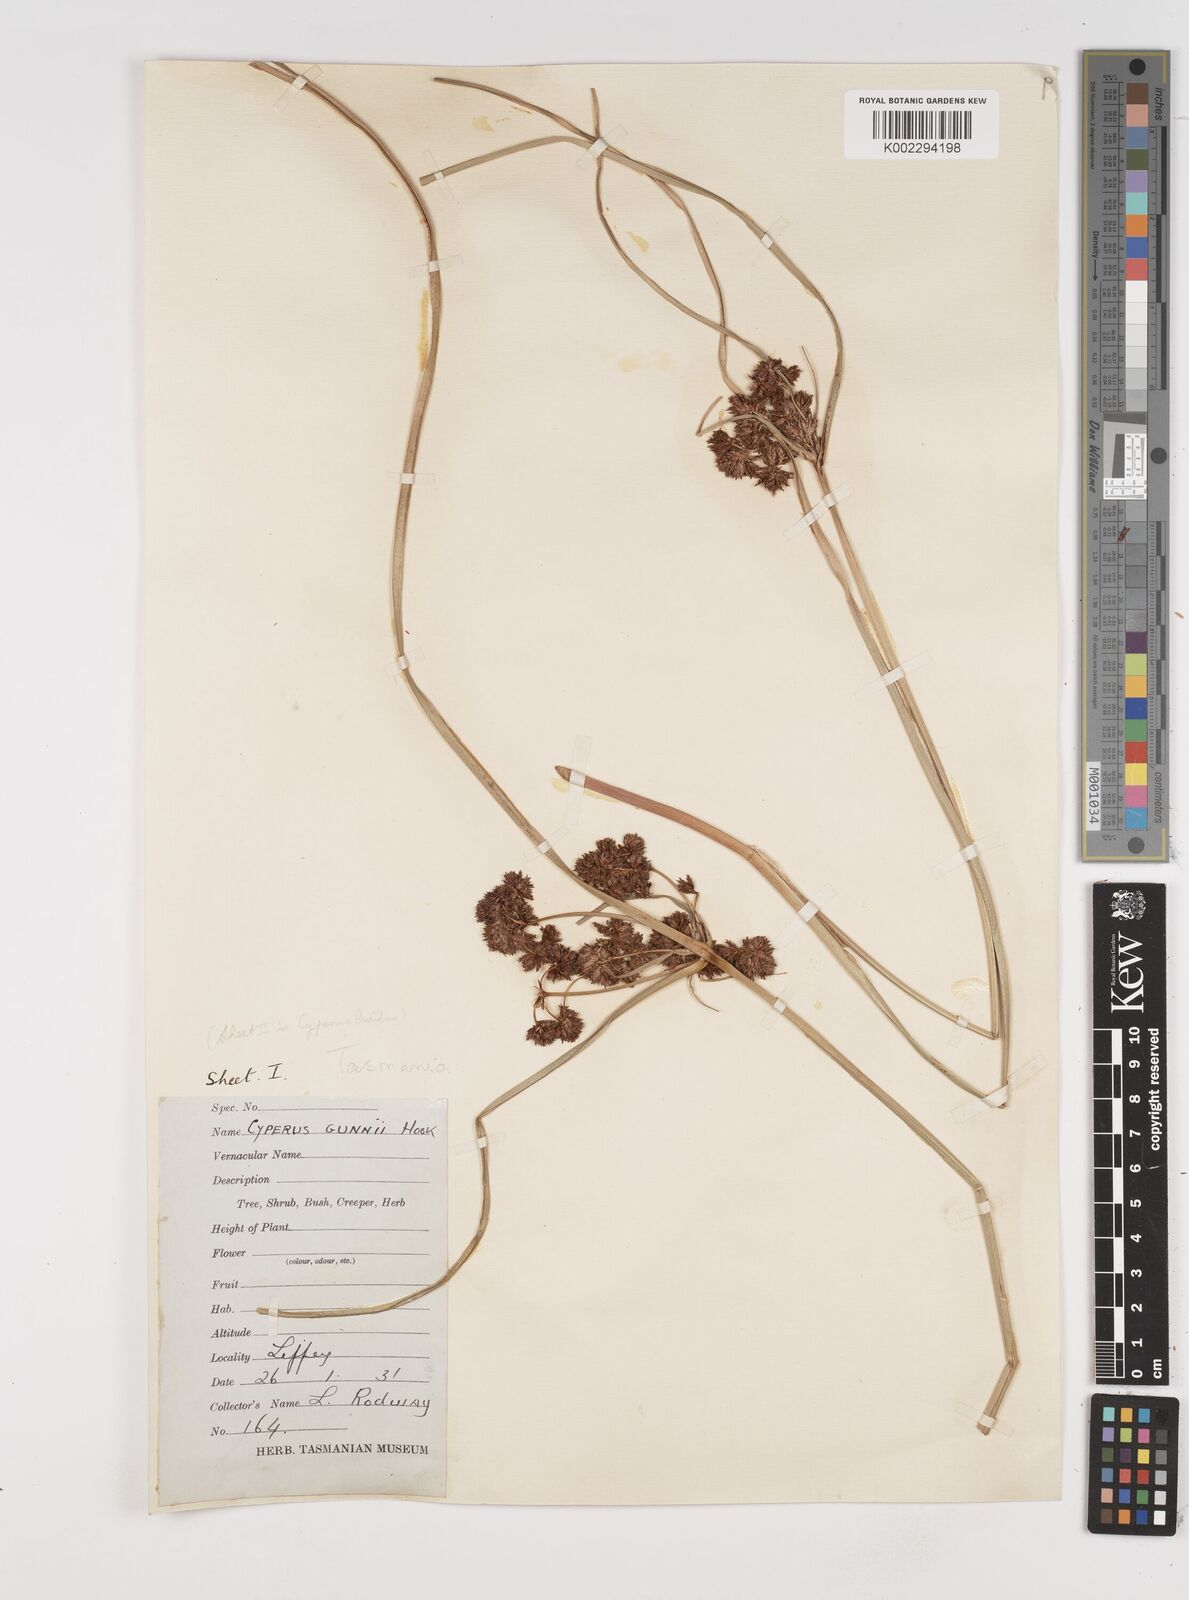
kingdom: Plantae
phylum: Tracheophyta
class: Liliopsida
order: Poales
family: Cyperaceae
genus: Cyperus
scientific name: Cyperus gunnii
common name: Flecked flat-sedge
